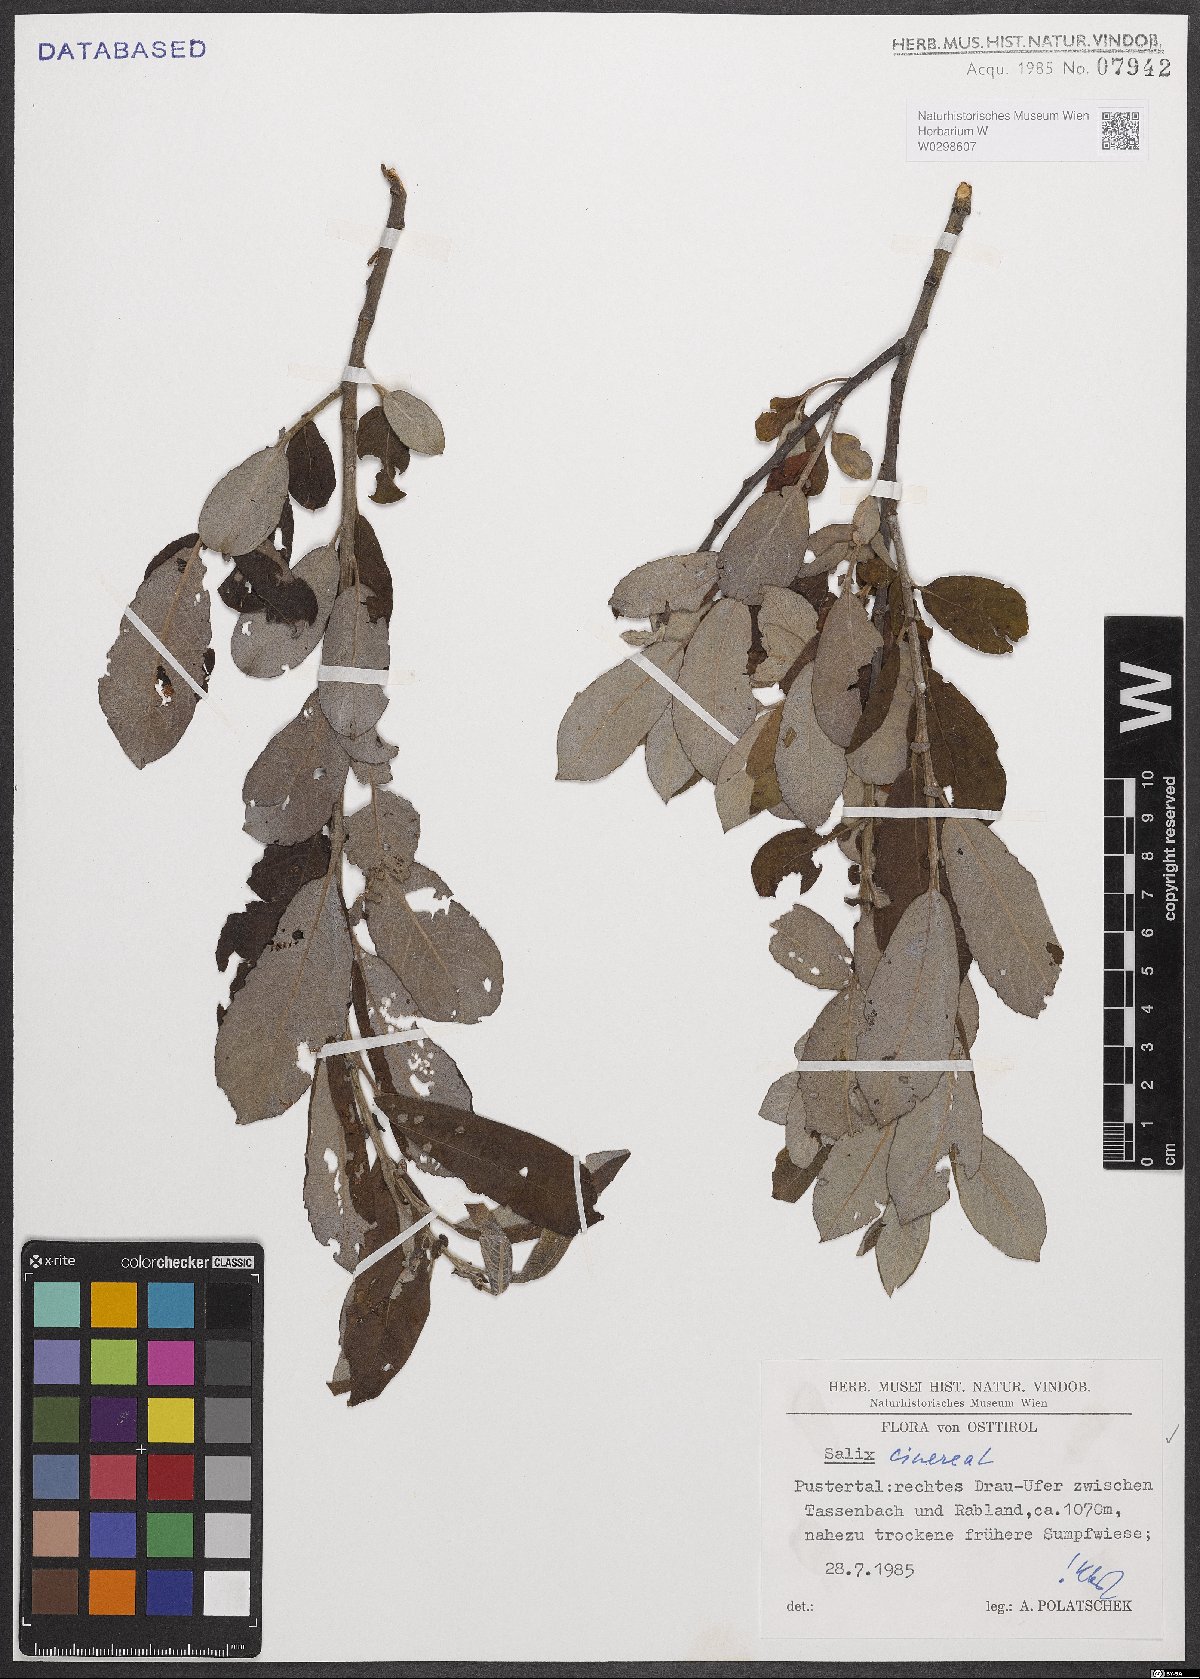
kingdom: Plantae
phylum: Tracheophyta
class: Magnoliopsida
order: Malpighiales
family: Salicaceae
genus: Salix
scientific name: Salix cinerea
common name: Common sallow
